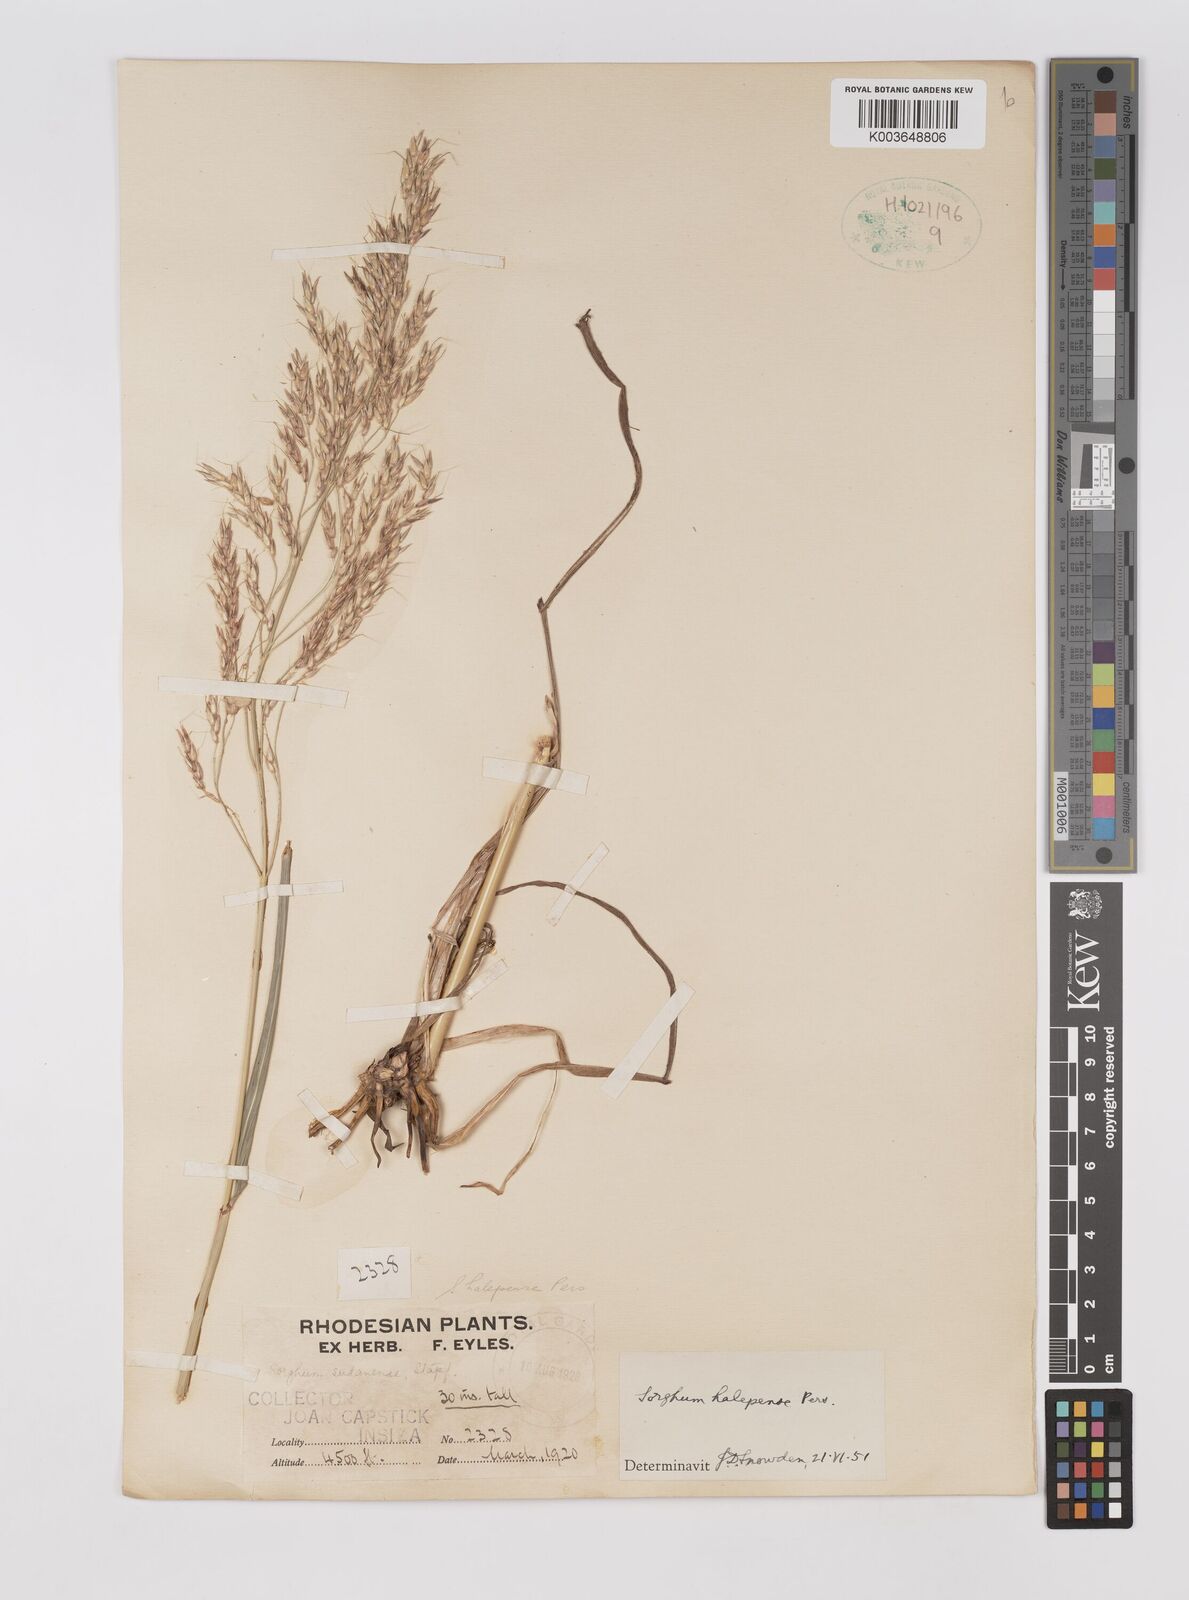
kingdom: Plantae
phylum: Tracheophyta
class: Liliopsida
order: Poales
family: Poaceae
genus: Sorghum
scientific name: Sorghum halepense
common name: Johnson-grass
